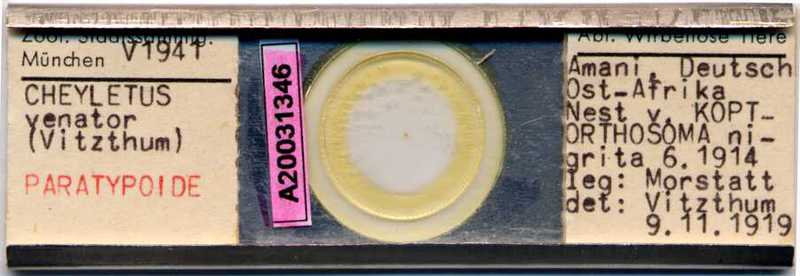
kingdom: Animalia
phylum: Arthropoda
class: Arachnida
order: Trombidiformes
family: Cheyletidae
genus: Cheyletus
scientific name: Cheyletus venator
